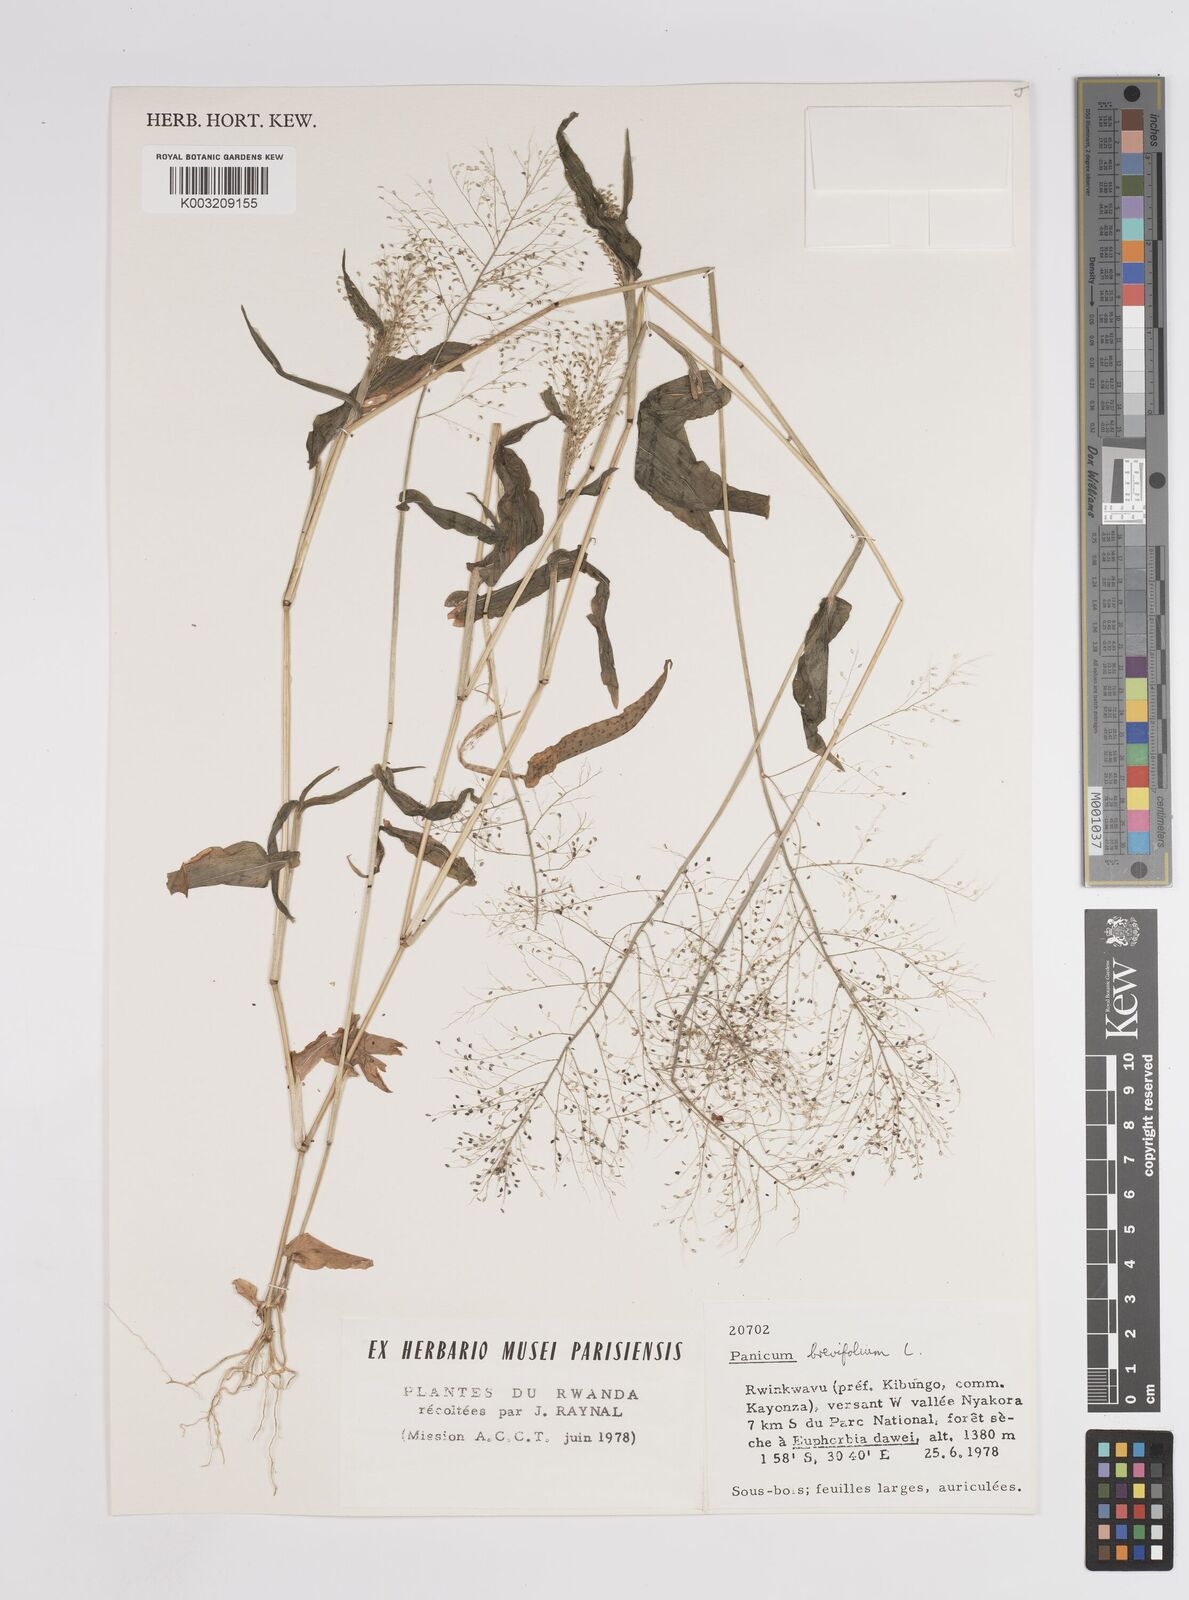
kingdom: Plantae
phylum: Tracheophyta
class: Liliopsida
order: Poales
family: Poaceae
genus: Panicum
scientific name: Panicum brevifolium
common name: Shortleaf panic grass
